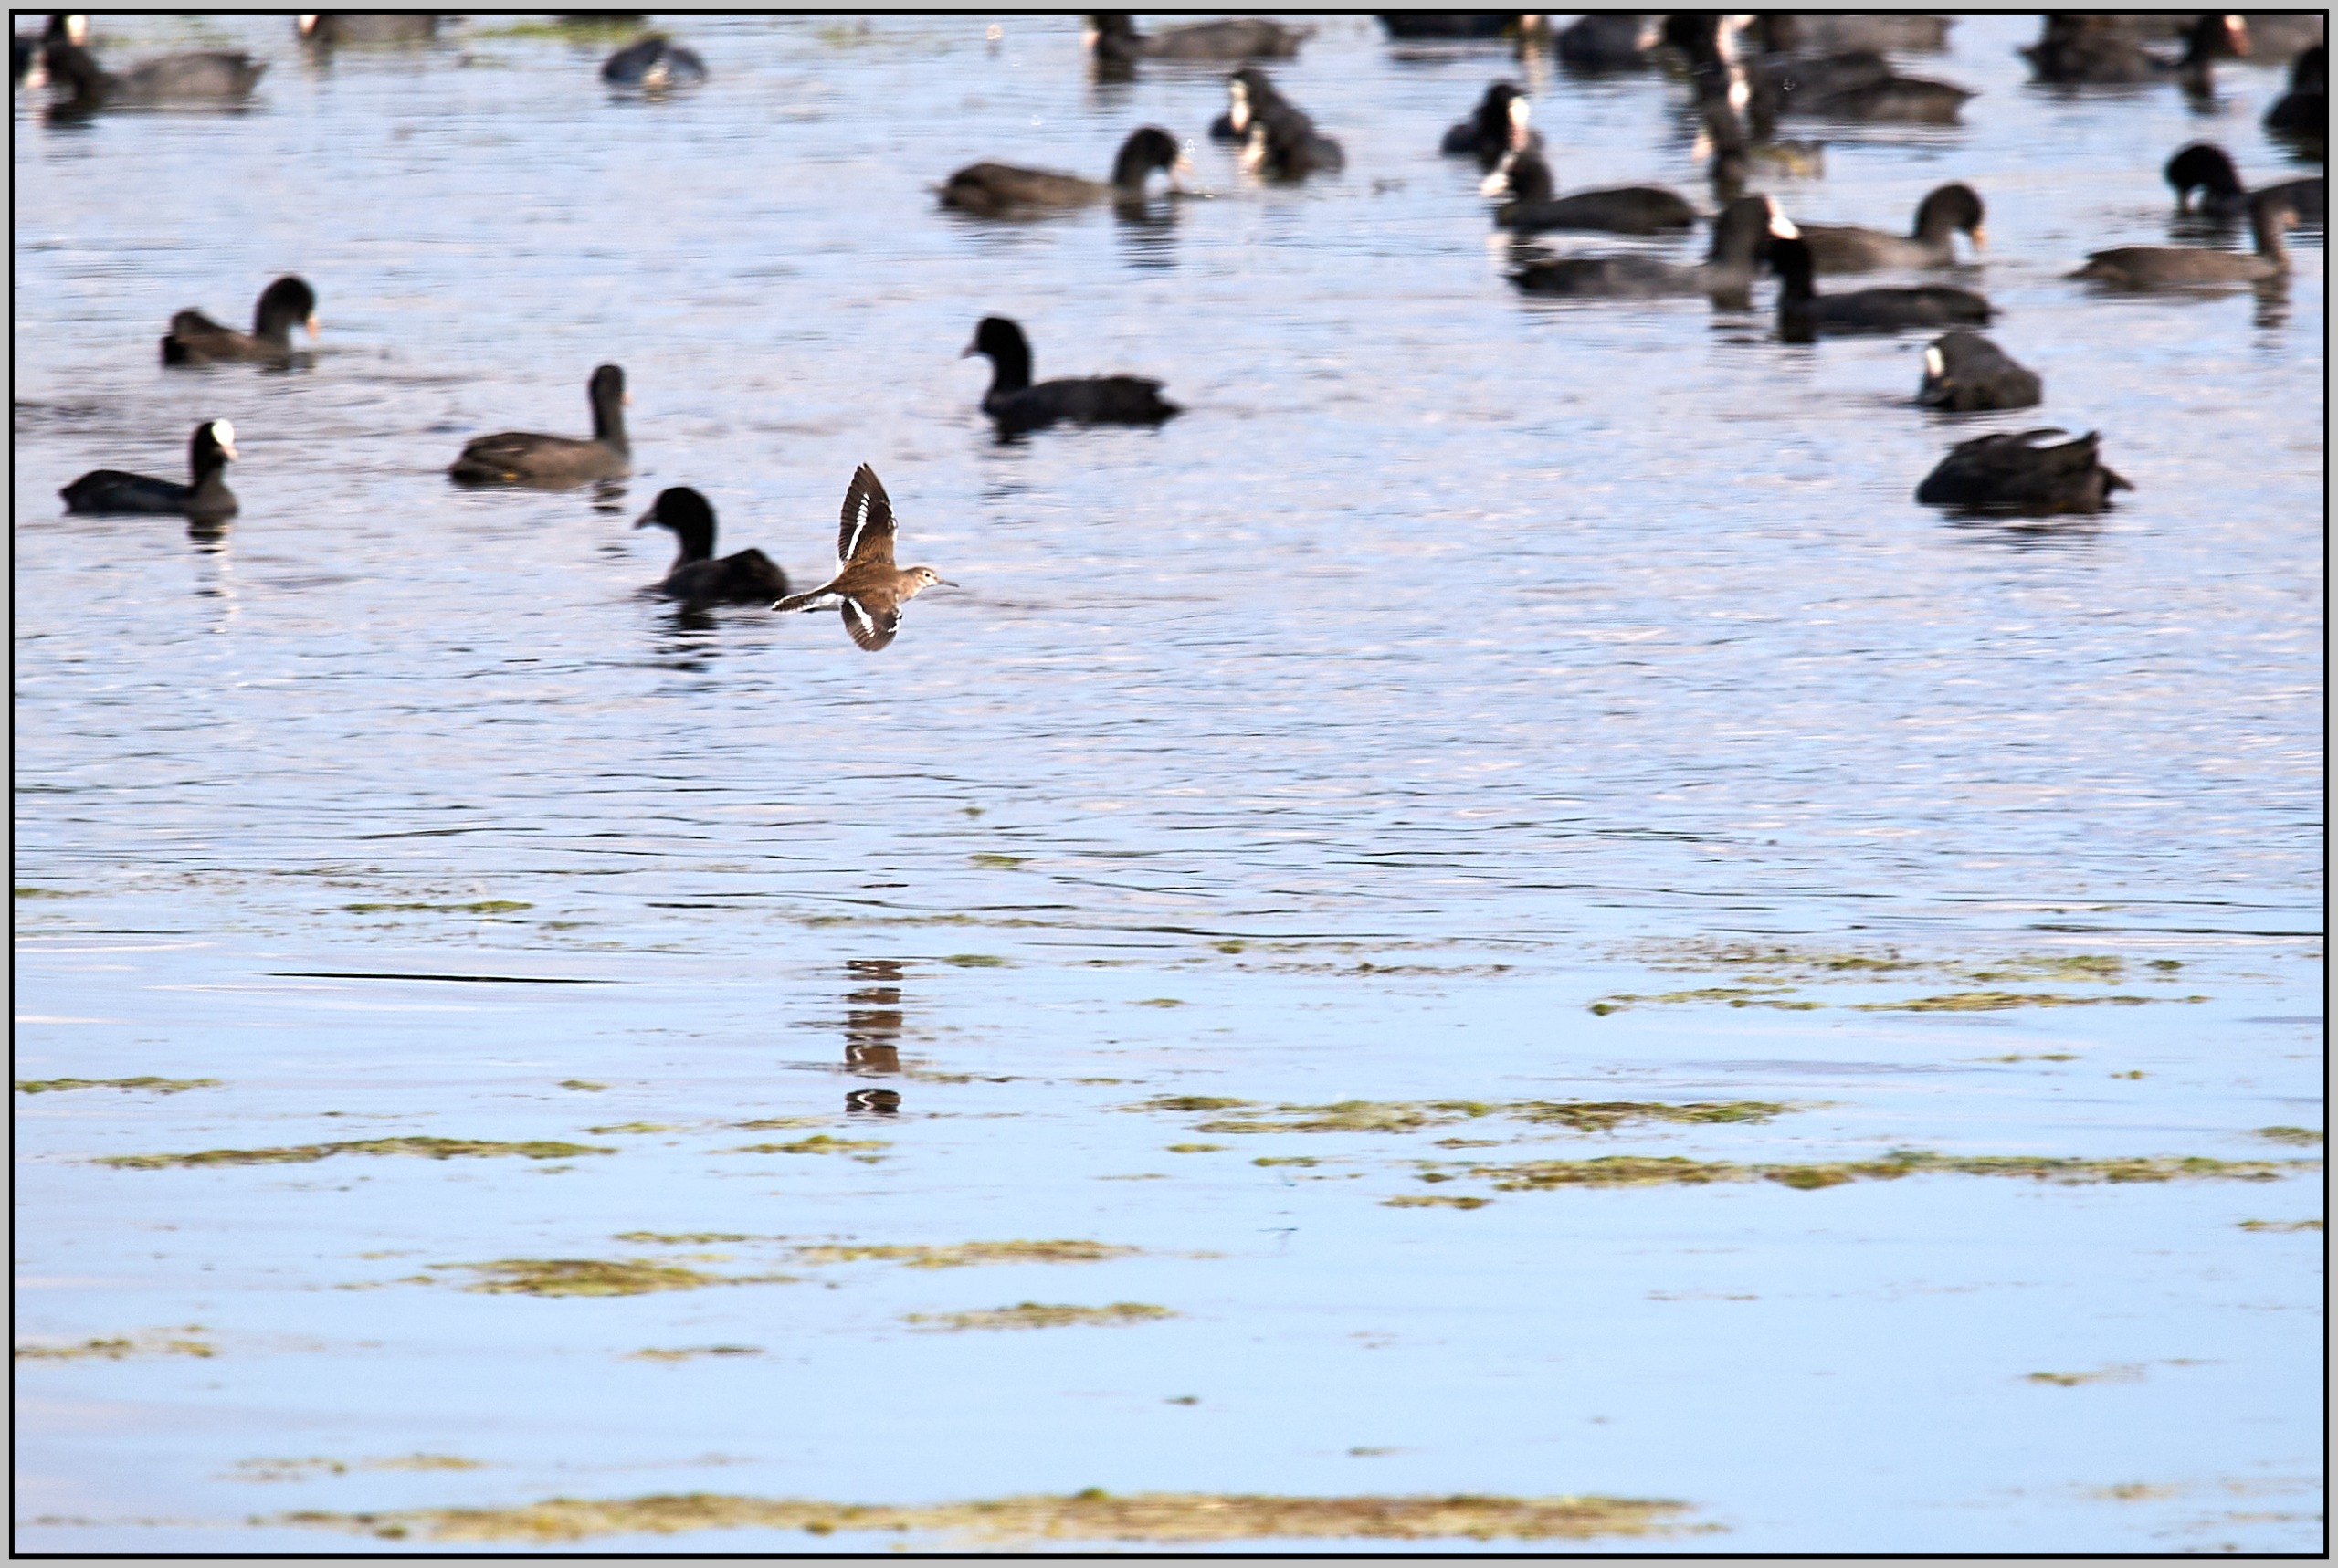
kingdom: Animalia
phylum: Chordata
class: Aves
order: Charadriiformes
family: Scolopacidae
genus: Actitis
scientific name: Actitis hypoleucos
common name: Mudderklire
